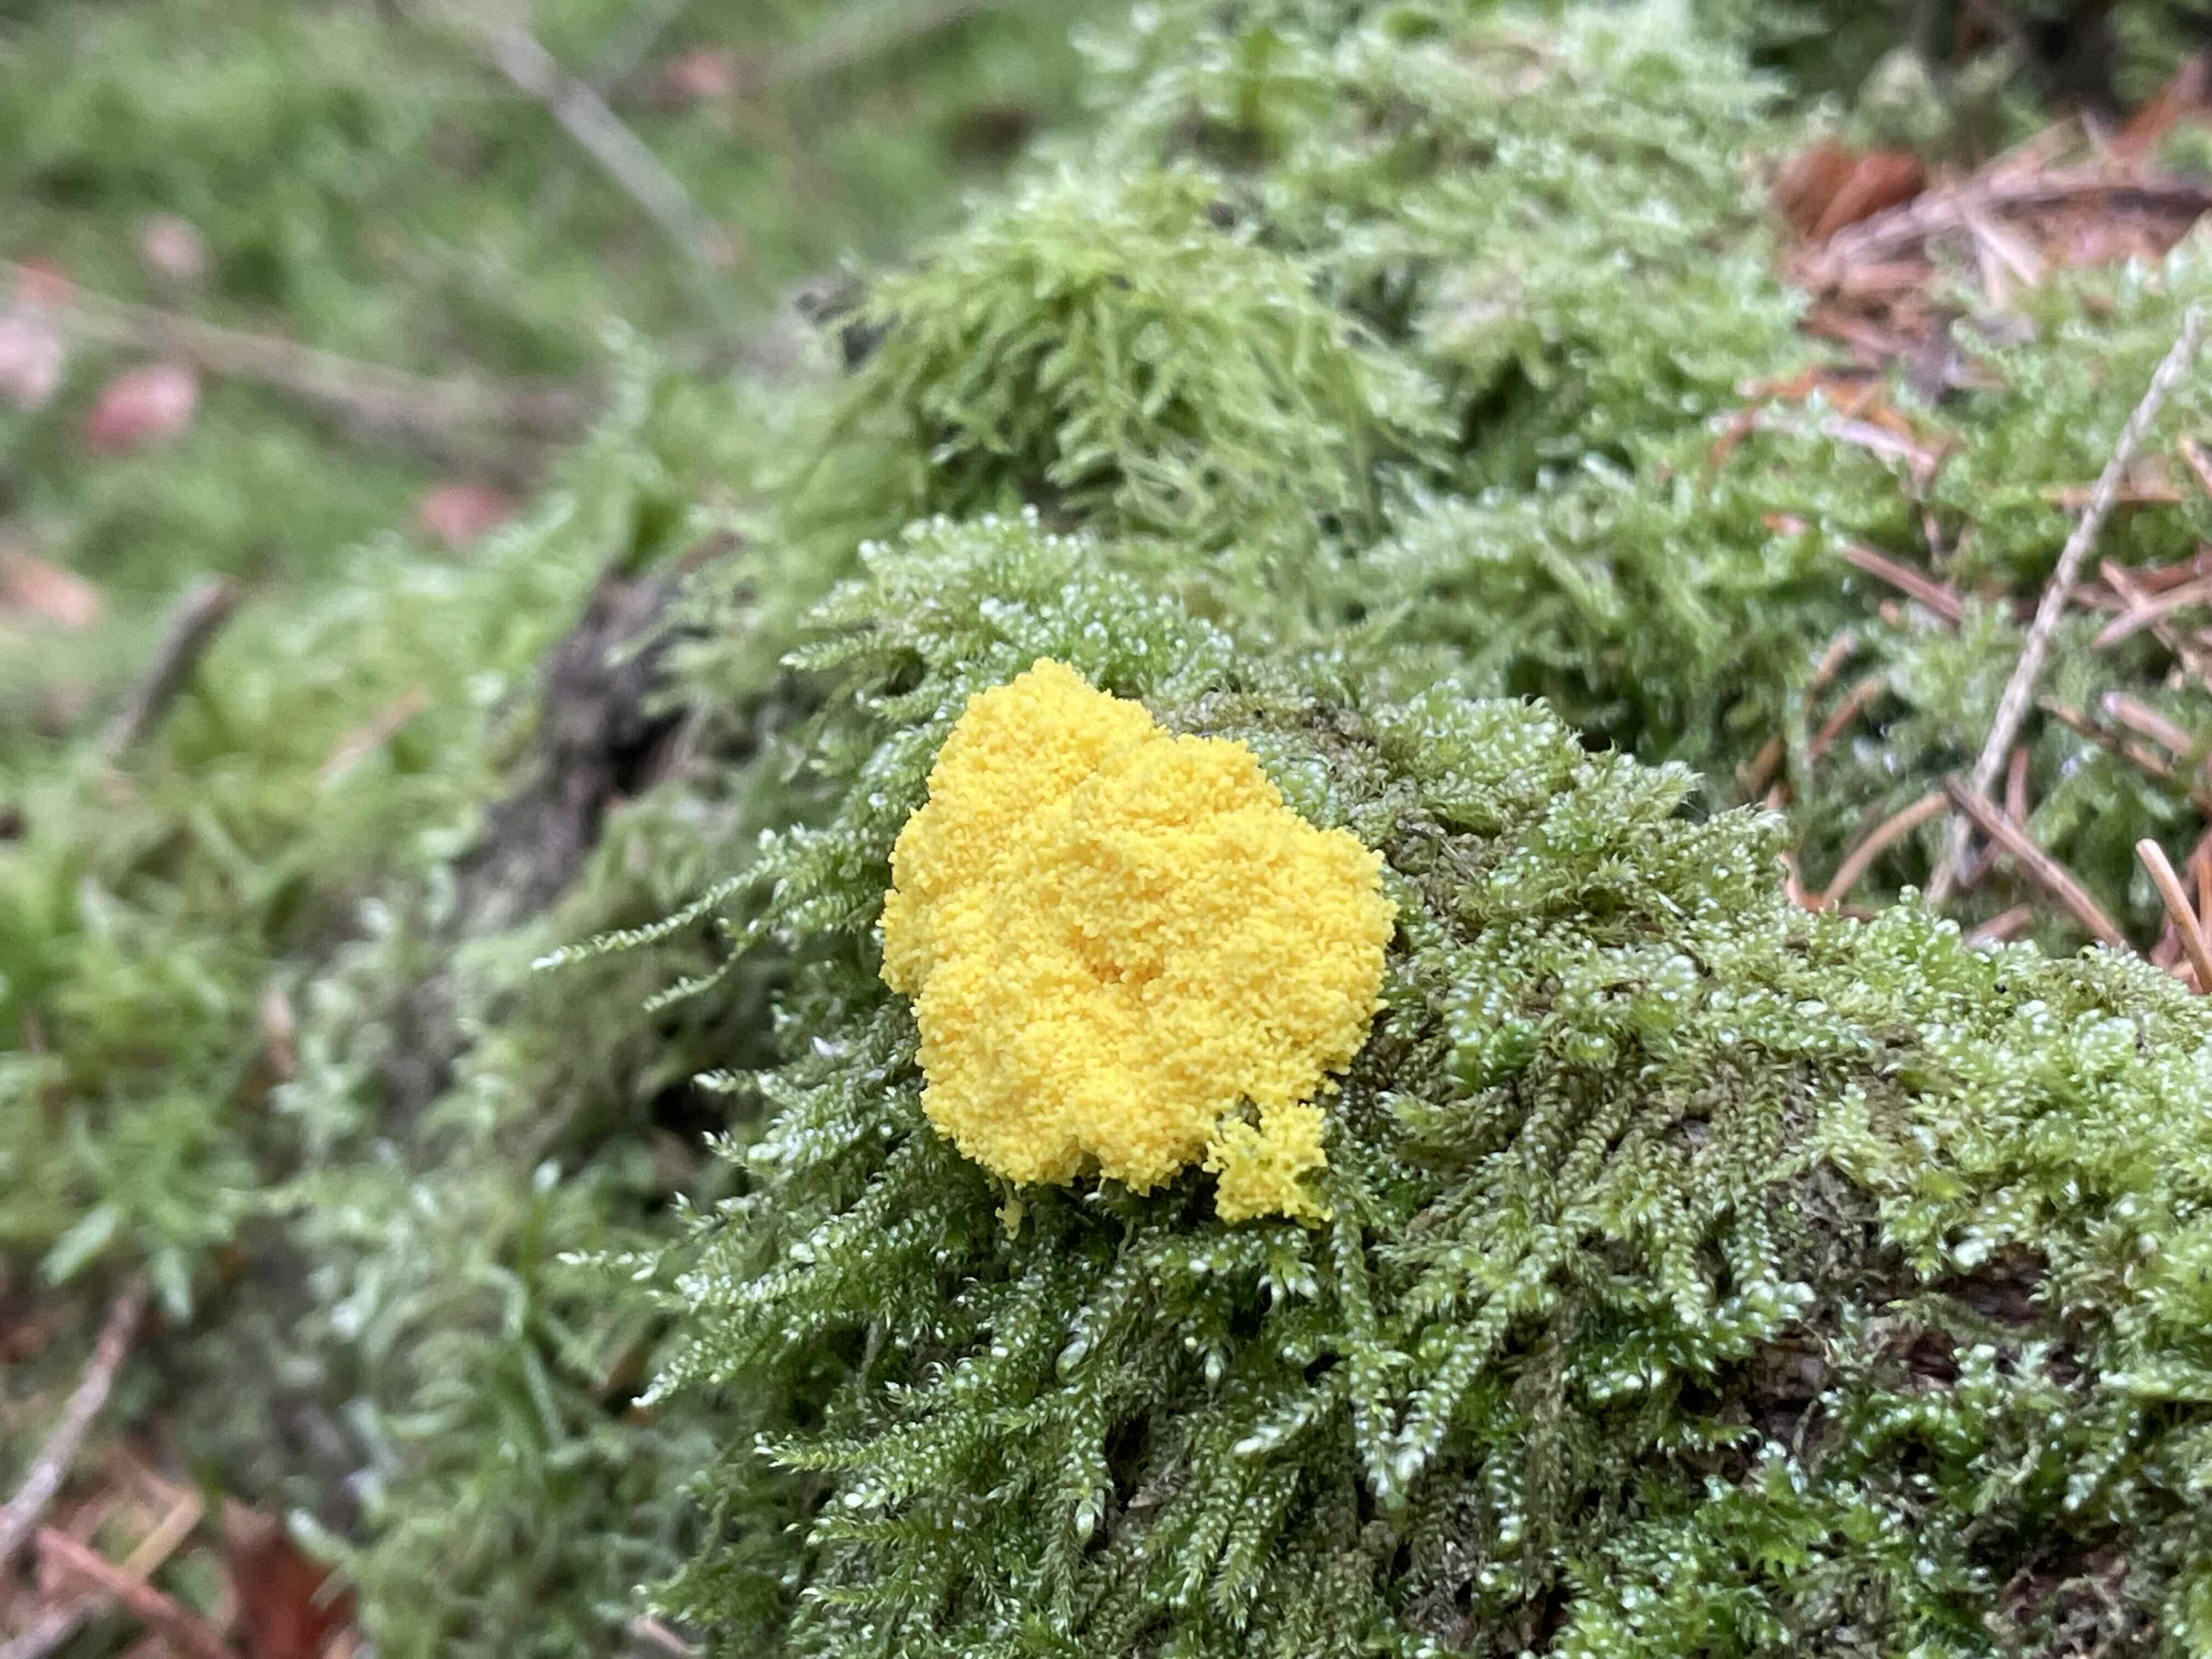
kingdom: Protozoa
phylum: Mycetozoa
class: Myxomycetes
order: Physarales
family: Physaraceae
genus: Fuligo
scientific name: Fuligo septica
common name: gul troldsmør
